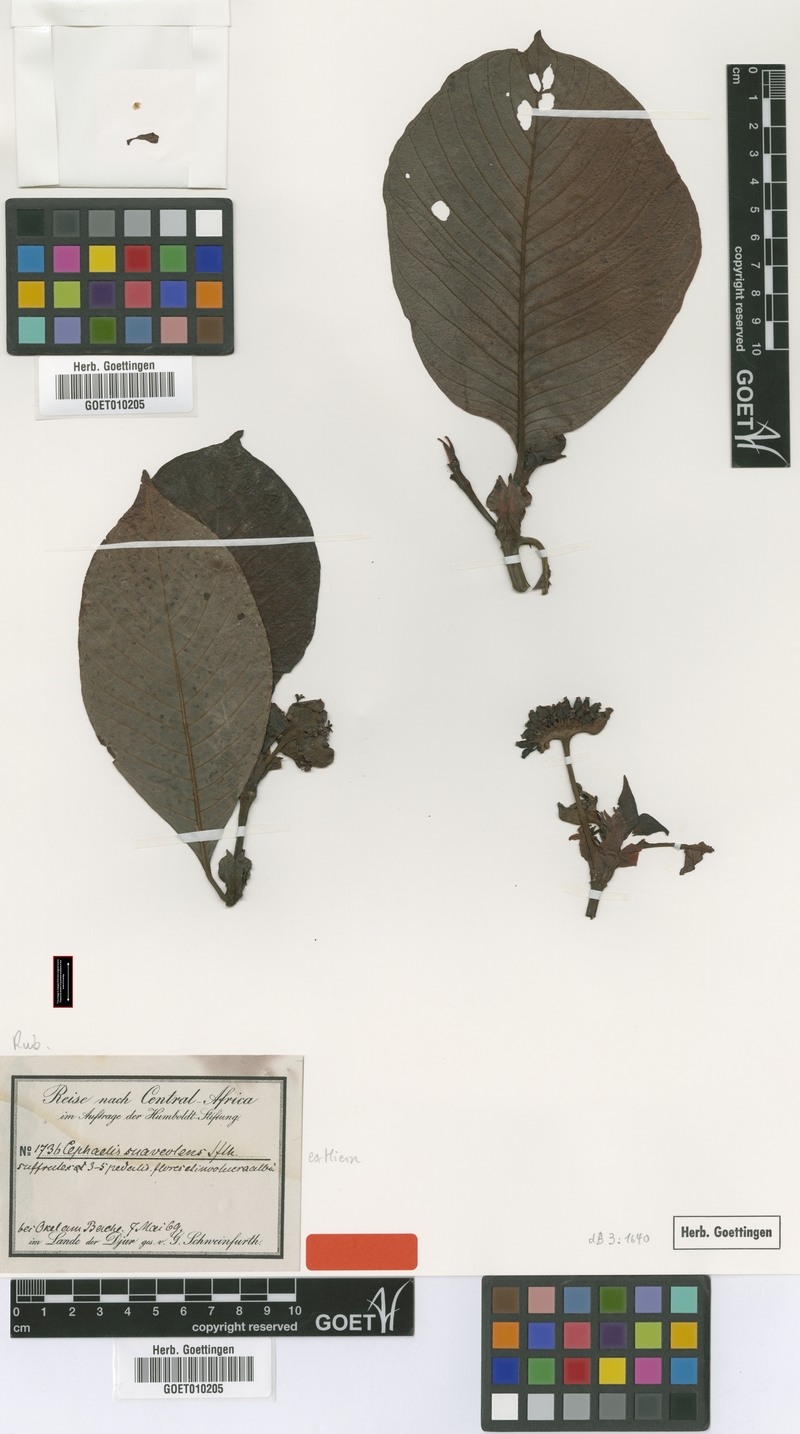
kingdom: Plantae
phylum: Tracheophyta
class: Magnoliopsida
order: Gentianales
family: Rubiaceae
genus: Psychotria
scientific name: Psychotria peduncularis
